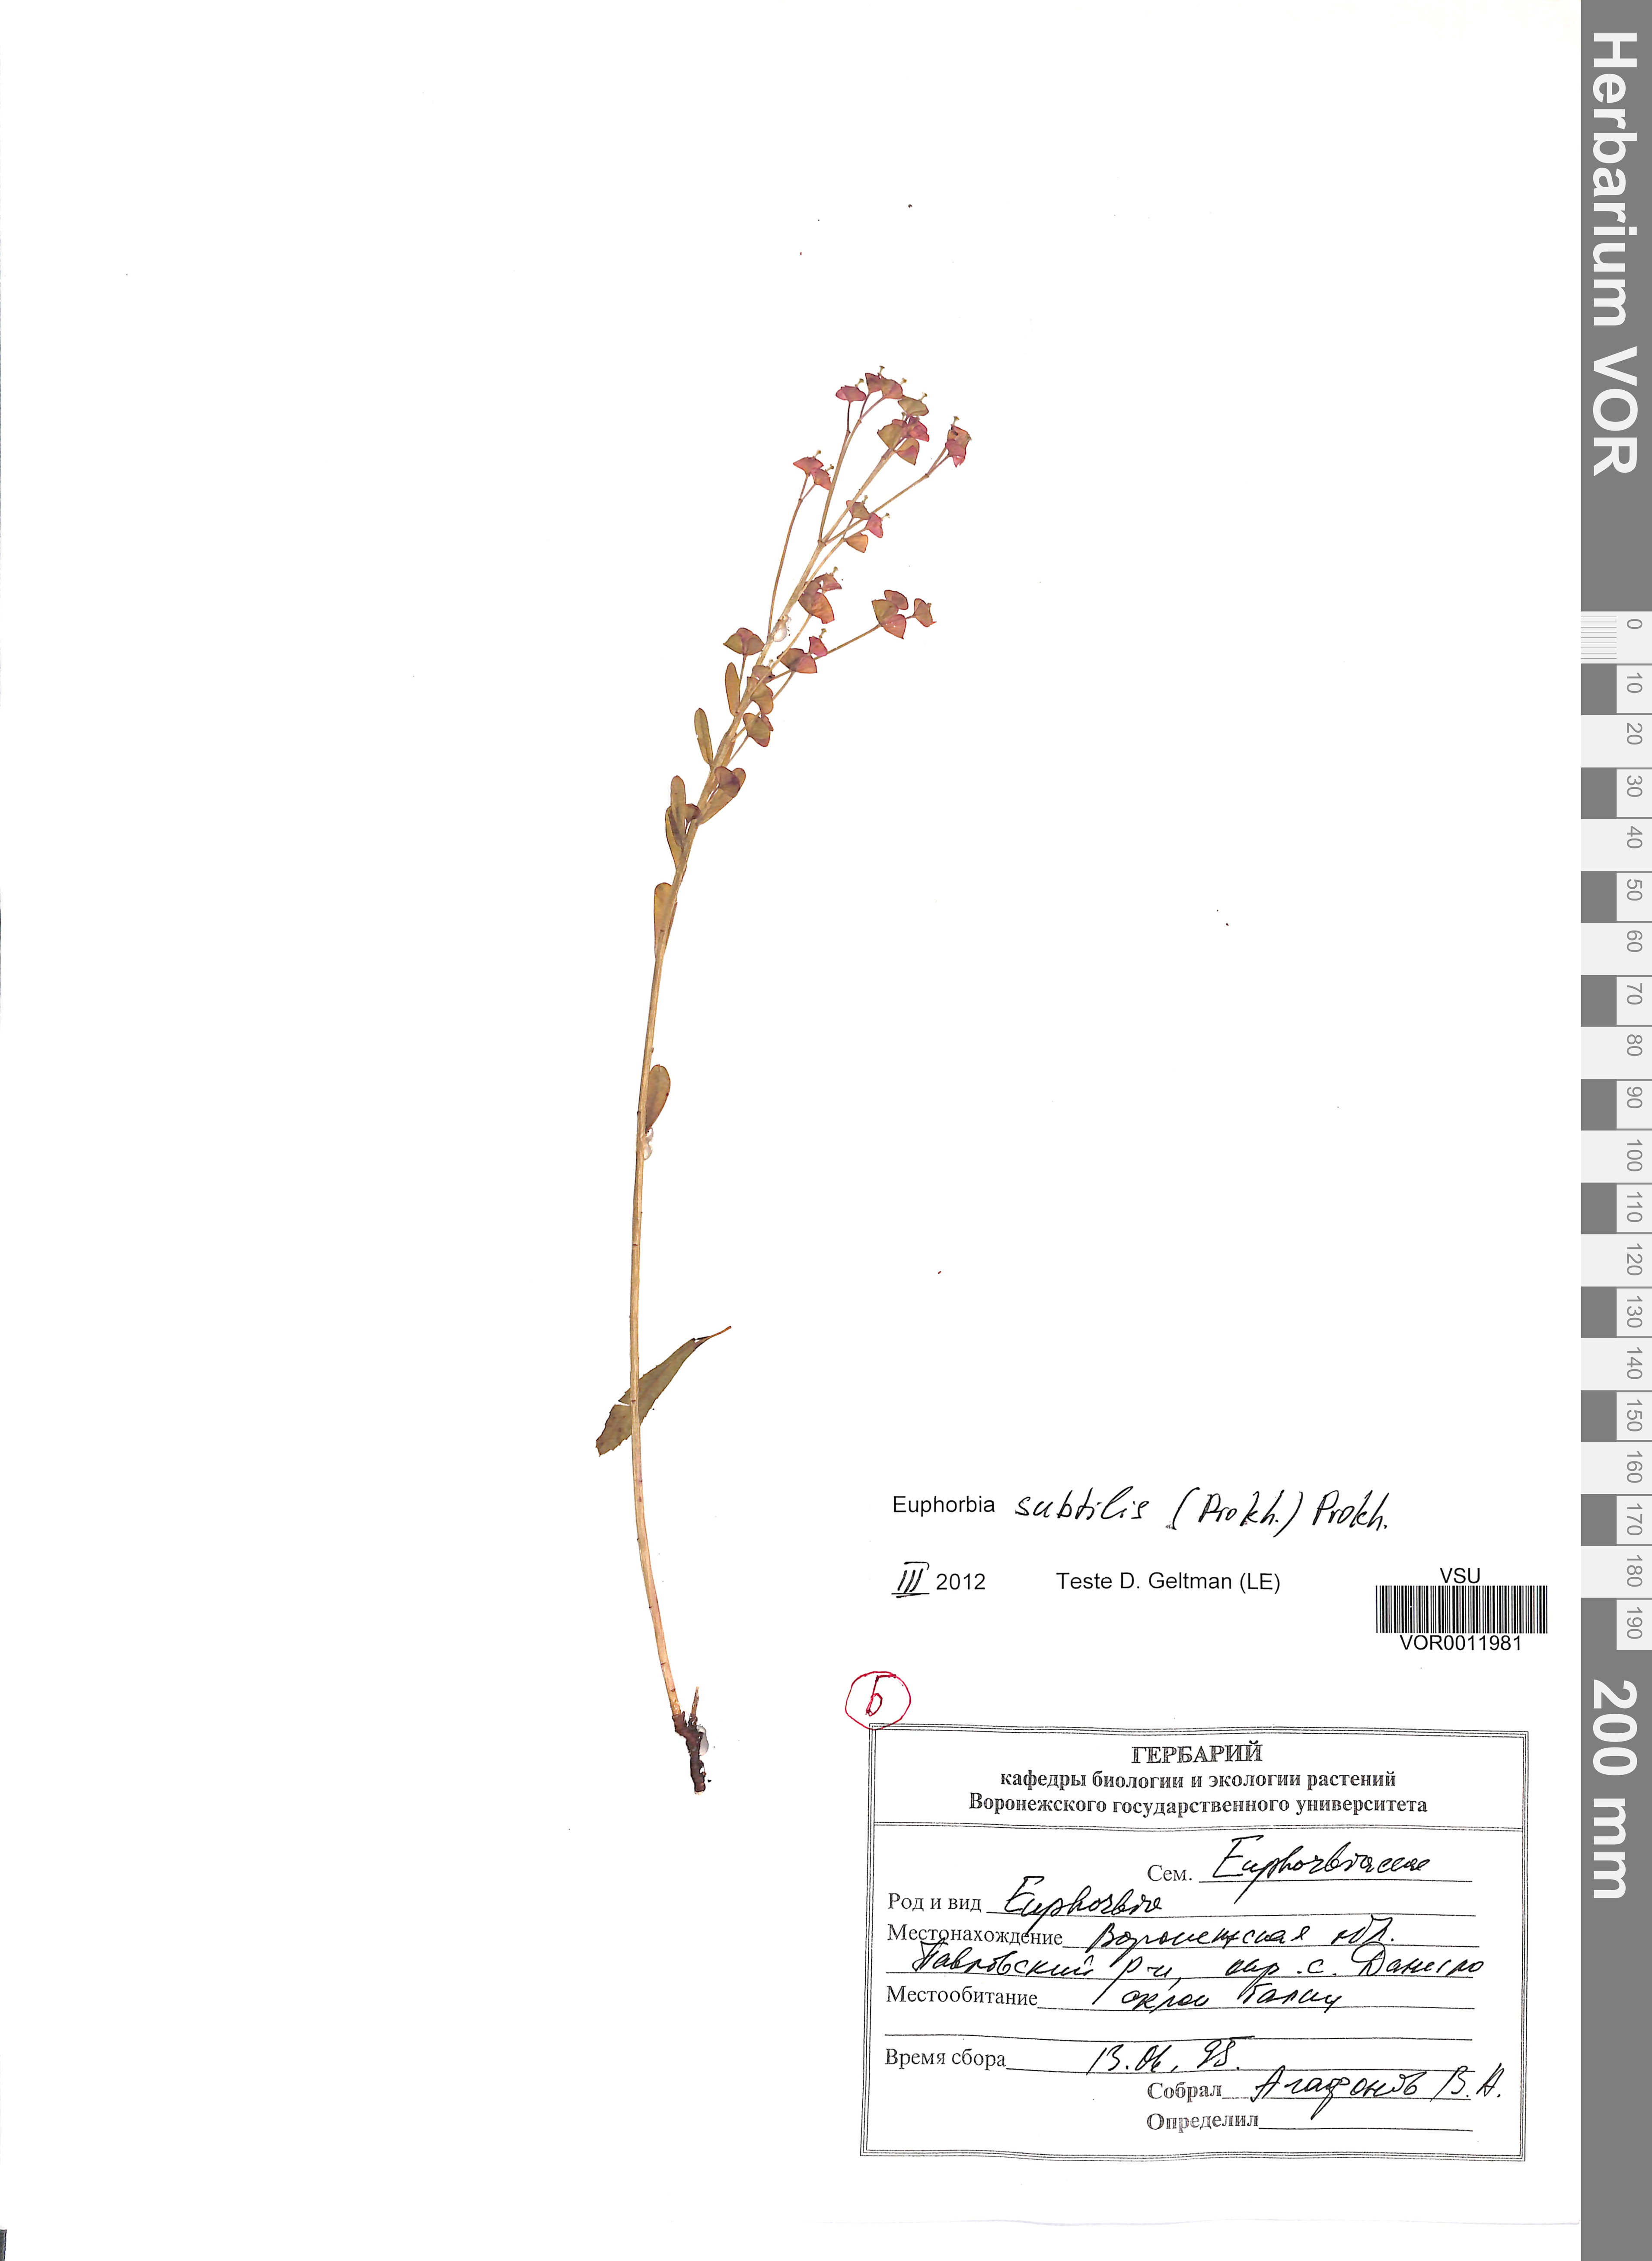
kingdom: Plantae
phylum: Tracheophyta
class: Magnoliopsida
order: Malpighiales
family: Euphorbiaceae
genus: Euphorbia
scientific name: Euphorbia microcarpa
